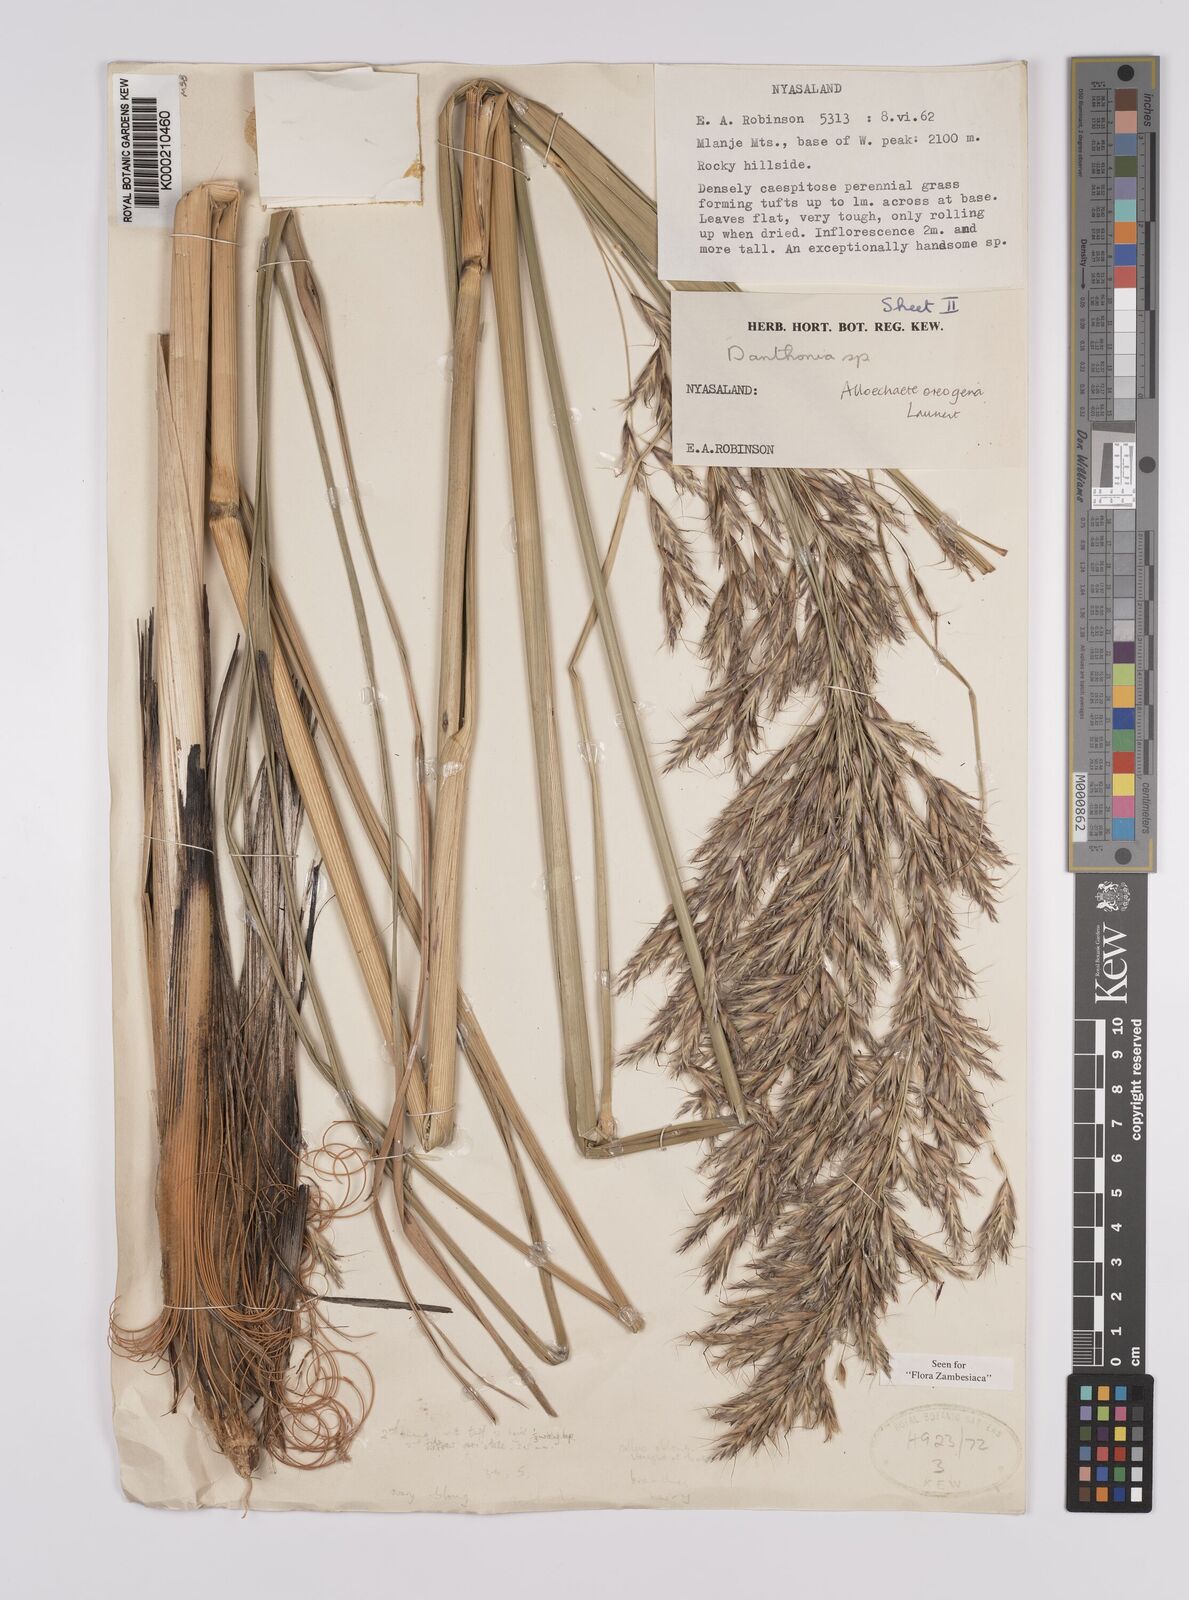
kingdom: Plantae
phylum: Tracheophyta
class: Liliopsida
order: Poales
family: Poaceae
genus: Alloeochaete
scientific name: Alloeochaete oreogena
